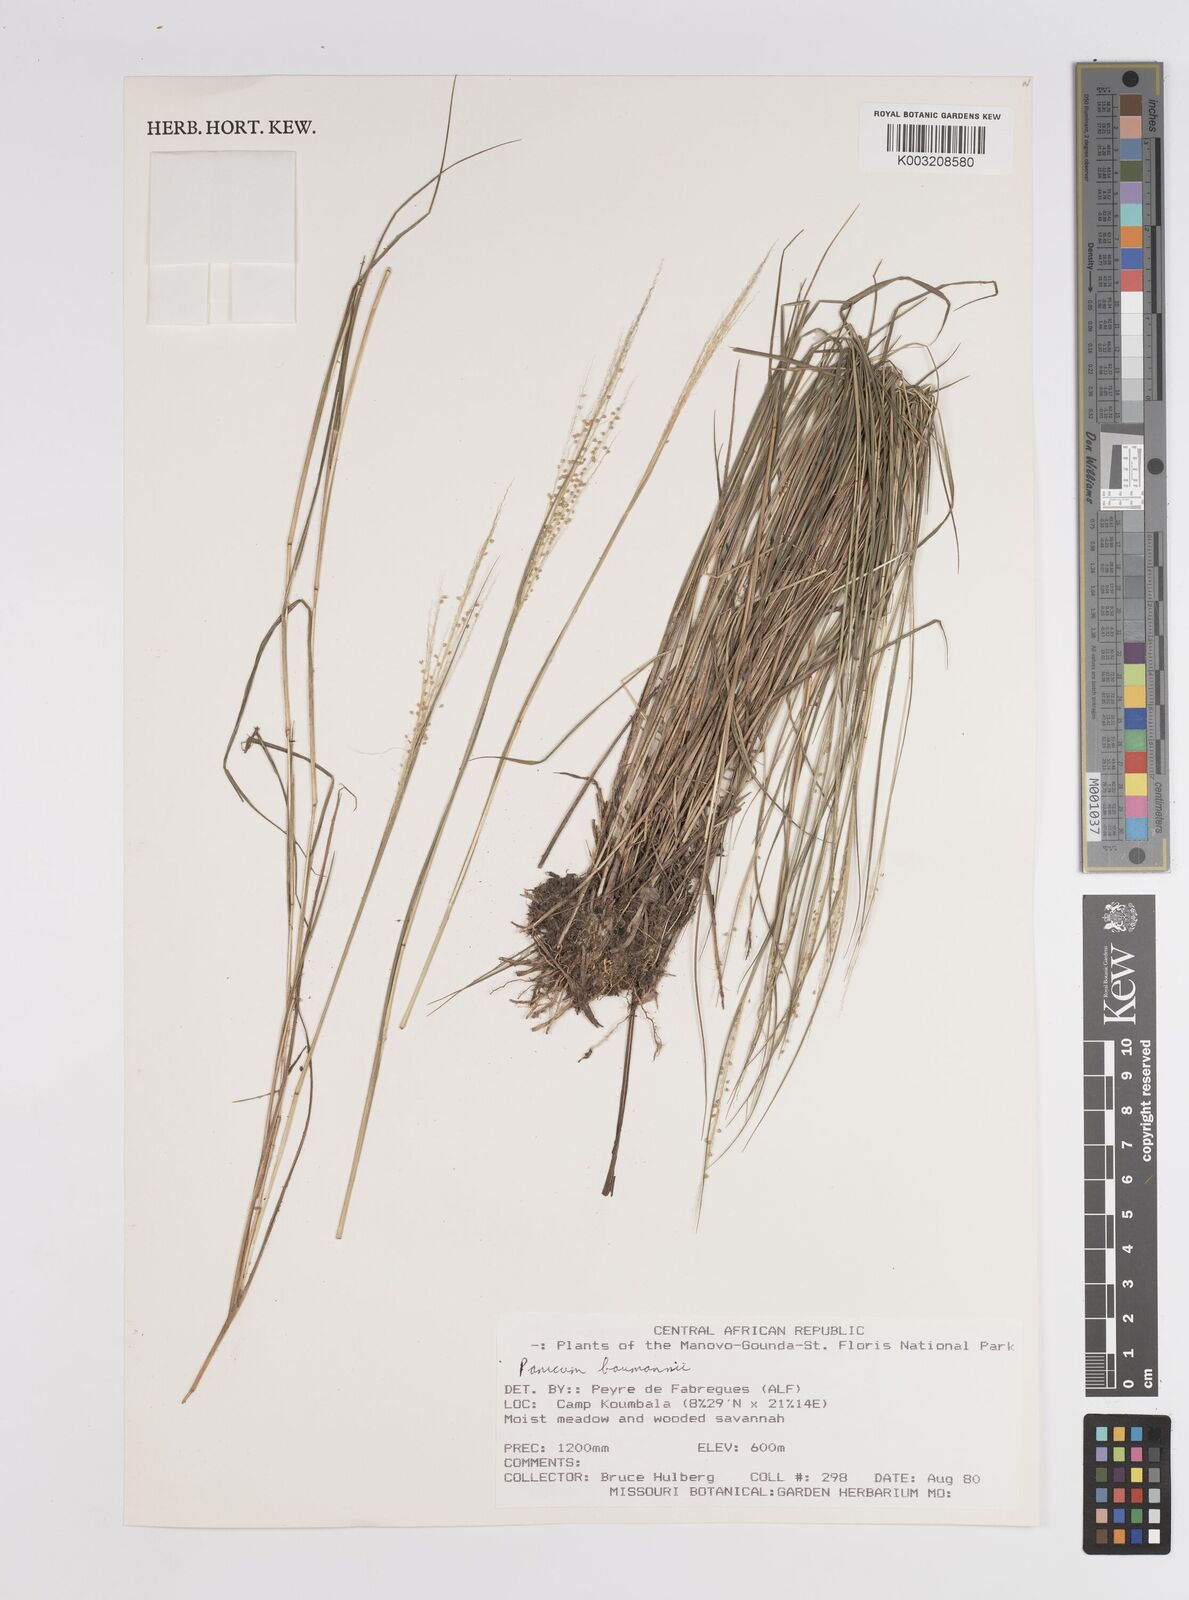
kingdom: Plantae
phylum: Tracheophyta
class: Liliopsida
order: Poales
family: Poaceae
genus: Trichanthecium
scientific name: Trichanthecium nervatum
